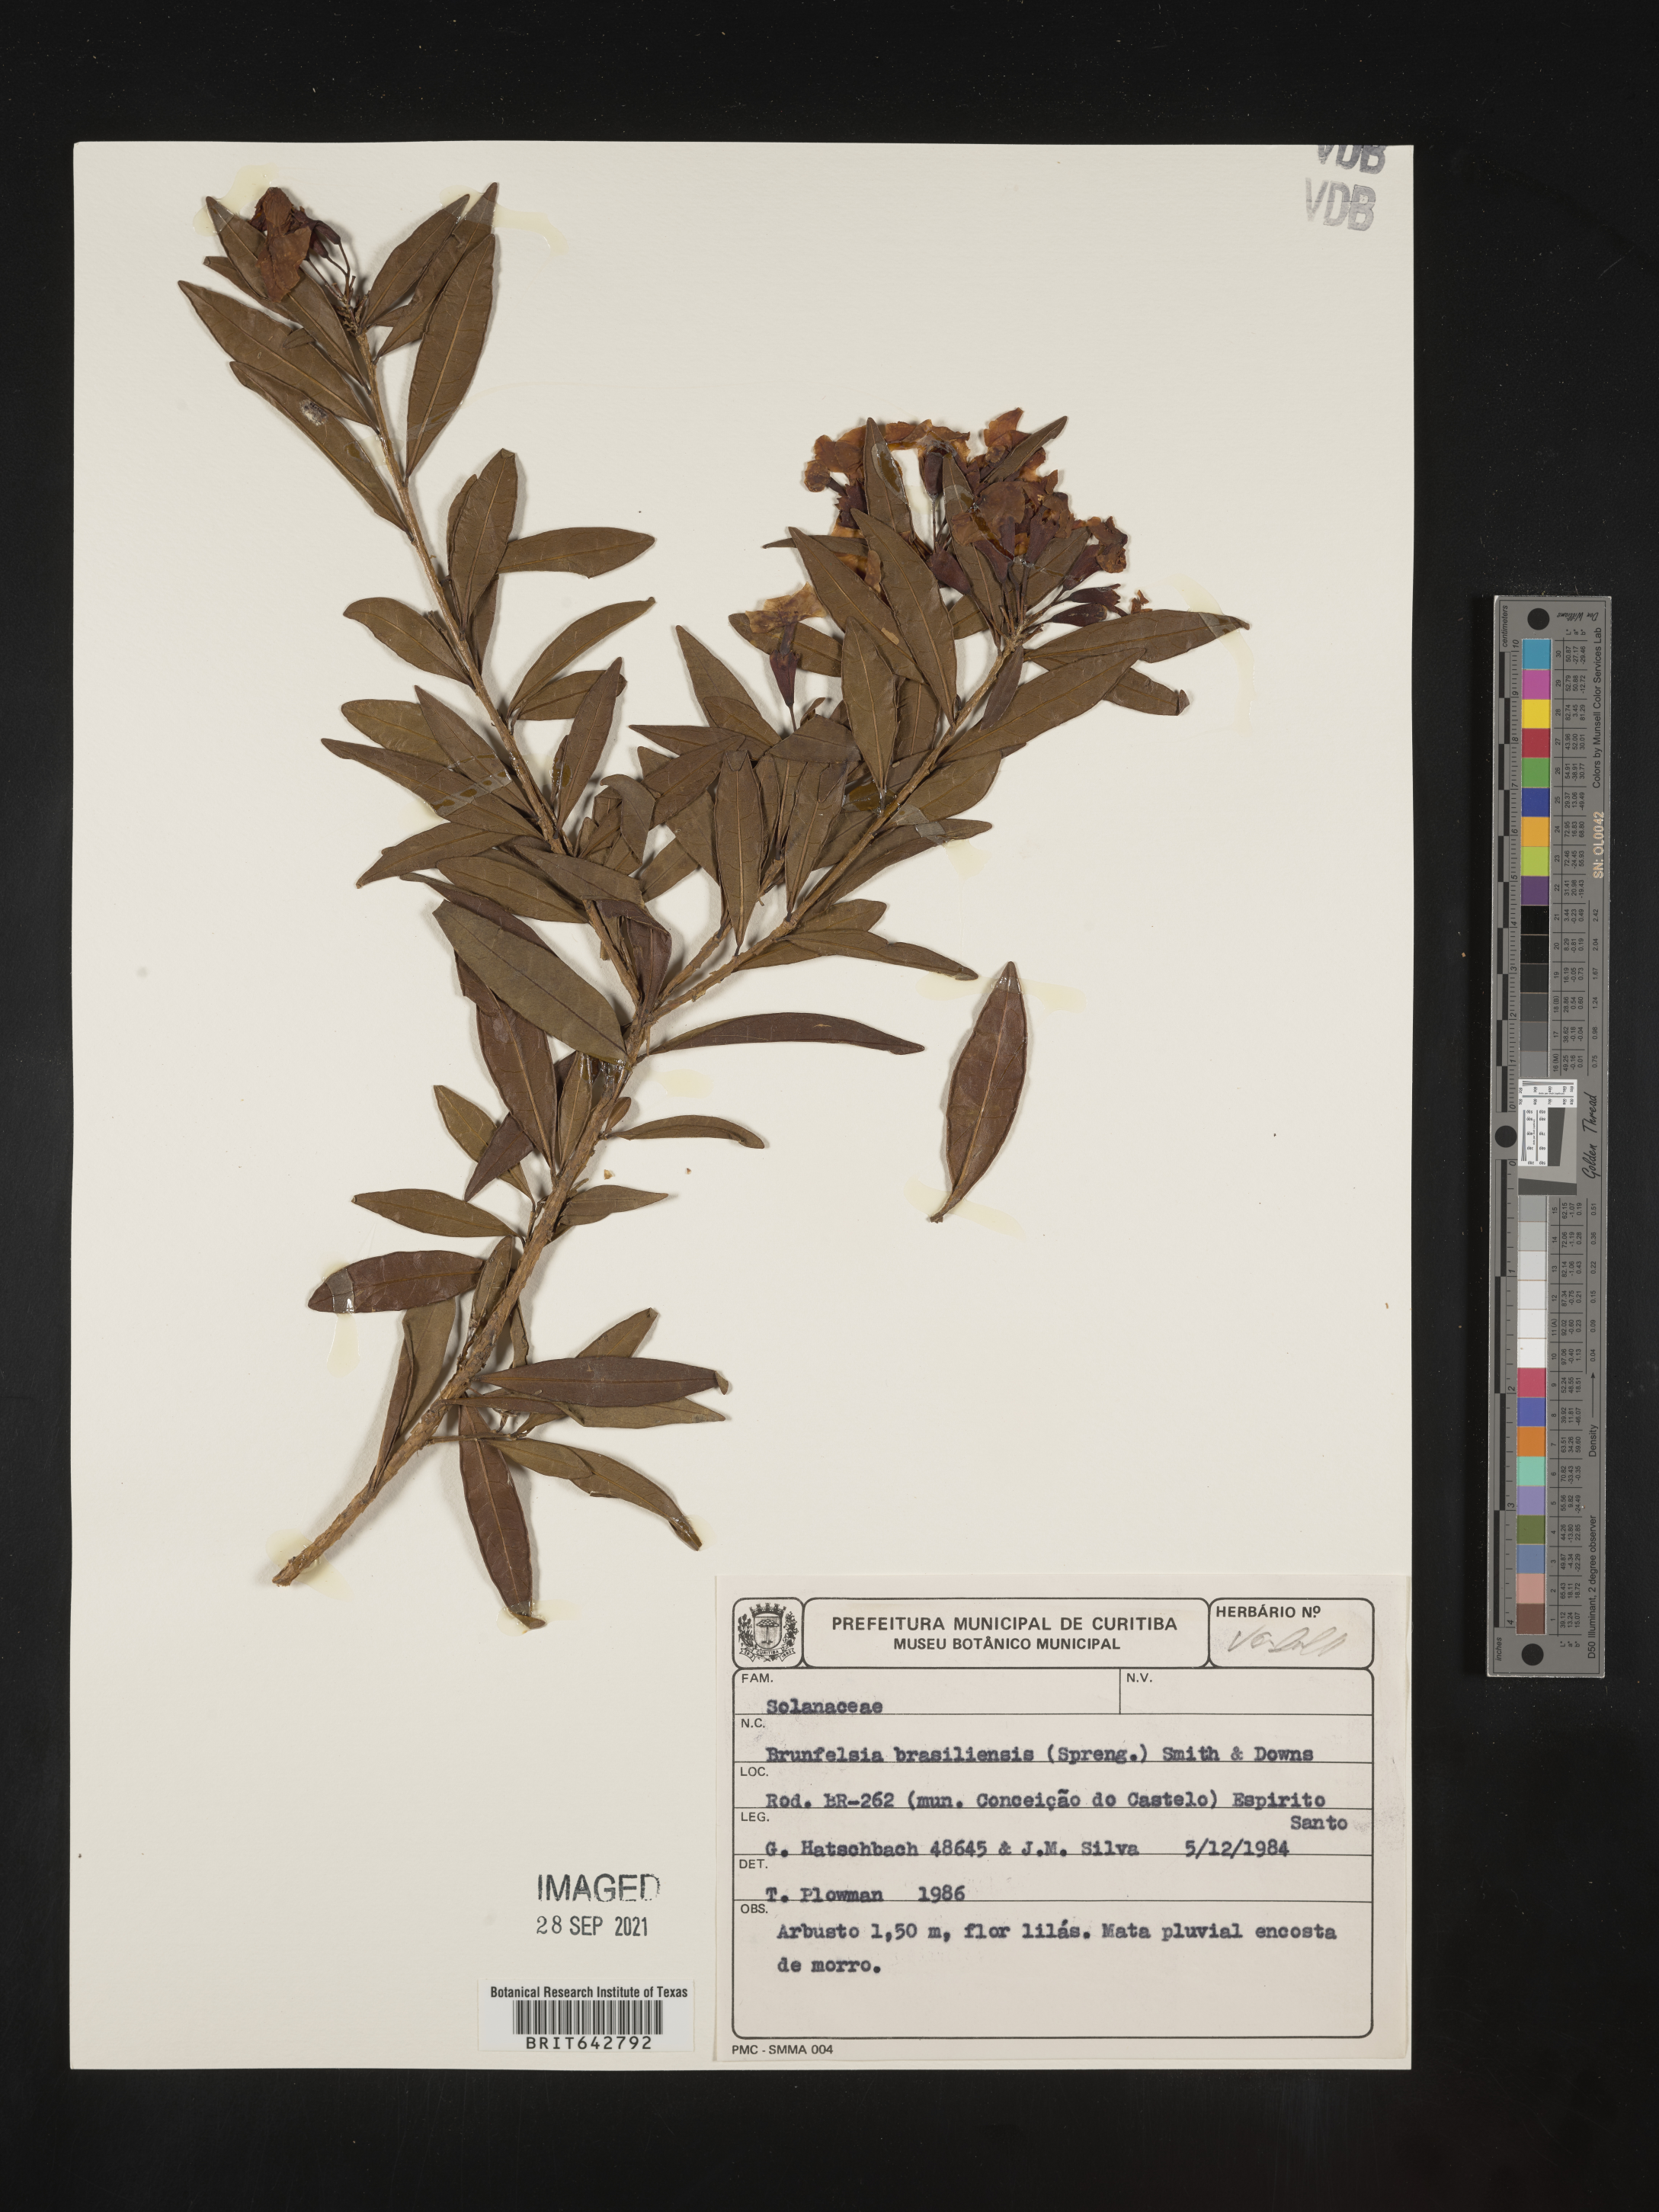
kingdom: Plantae
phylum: Tracheophyta
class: Magnoliopsida
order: Solanales
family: Solanaceae
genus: Brunfelsia
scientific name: Brunfelsia
